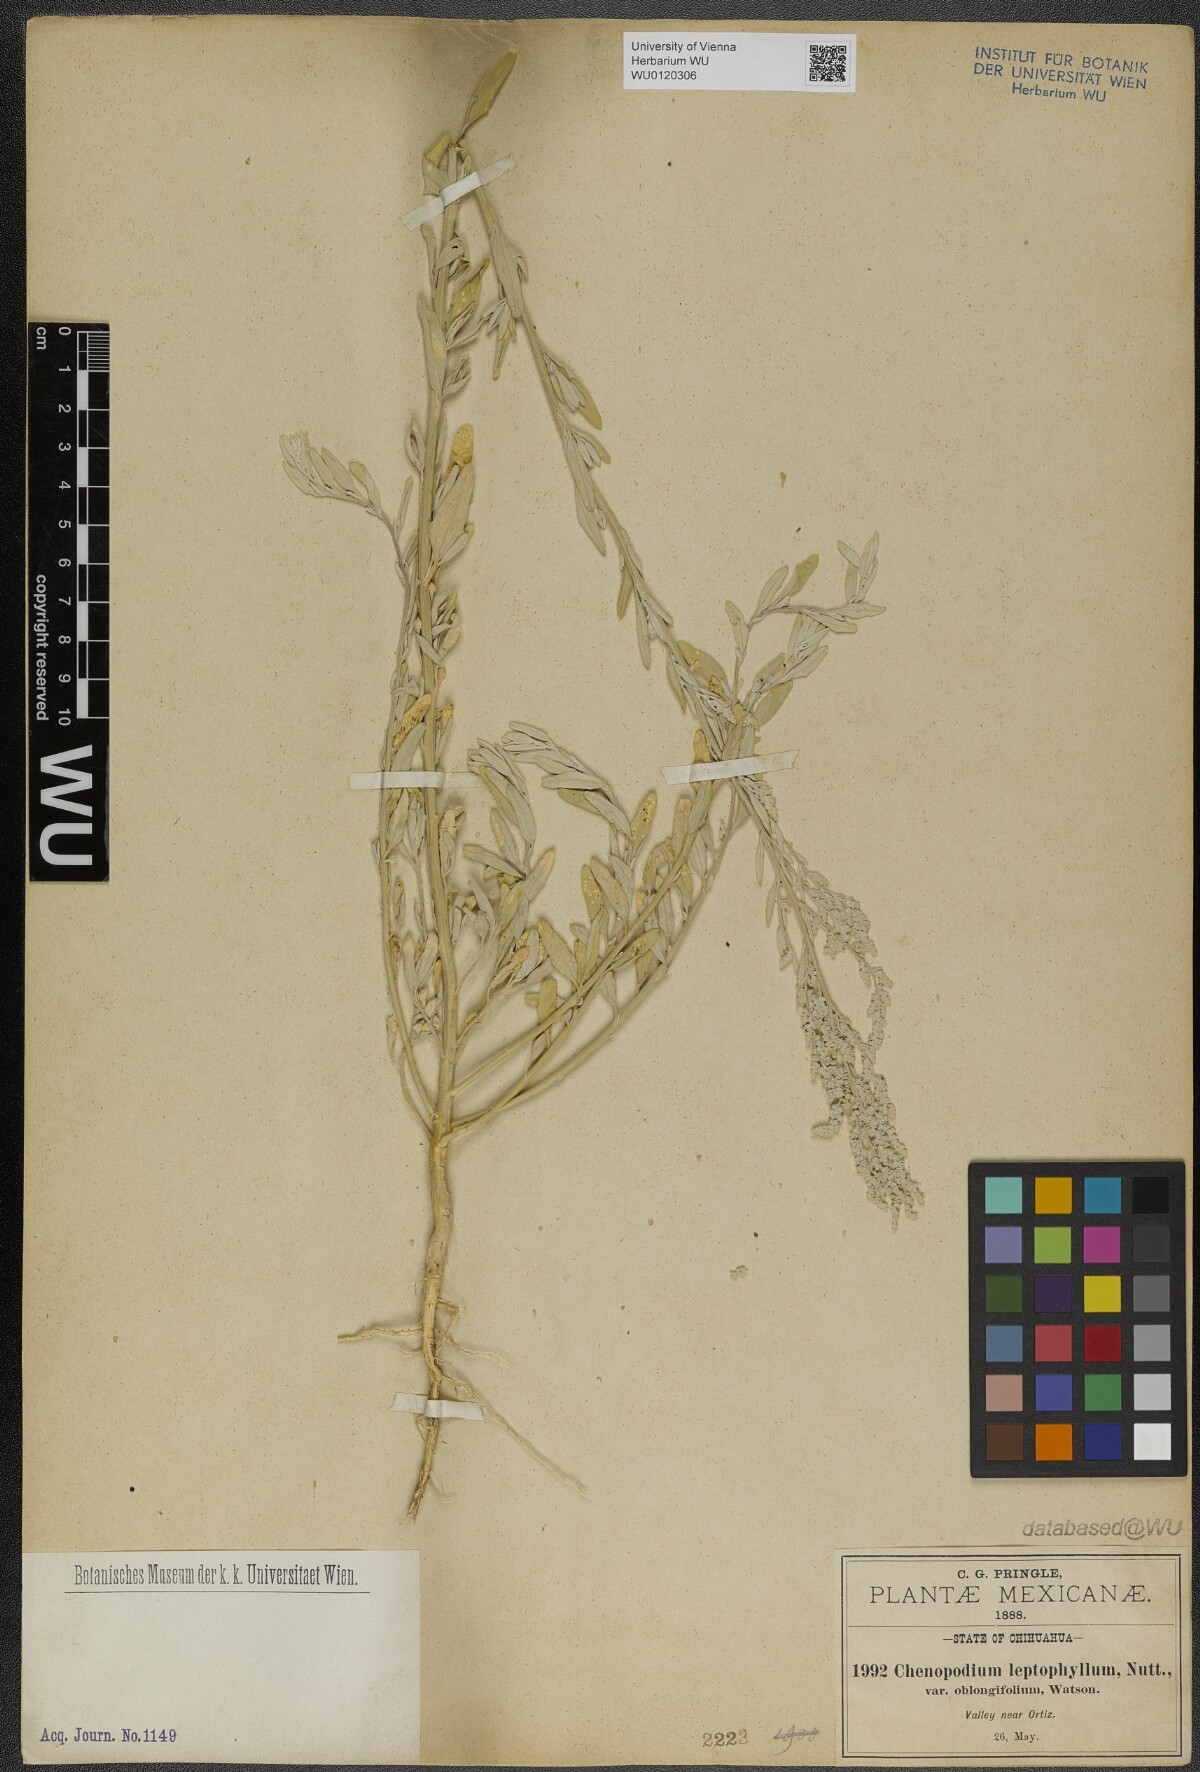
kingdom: Plantae
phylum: Tracheophyta
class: Magnoliopsida
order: Caryophyllales
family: Amaranthaceae
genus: Chenopodium
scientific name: Chenopodium leptophyllum
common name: Narrow-leaf goosefoot
